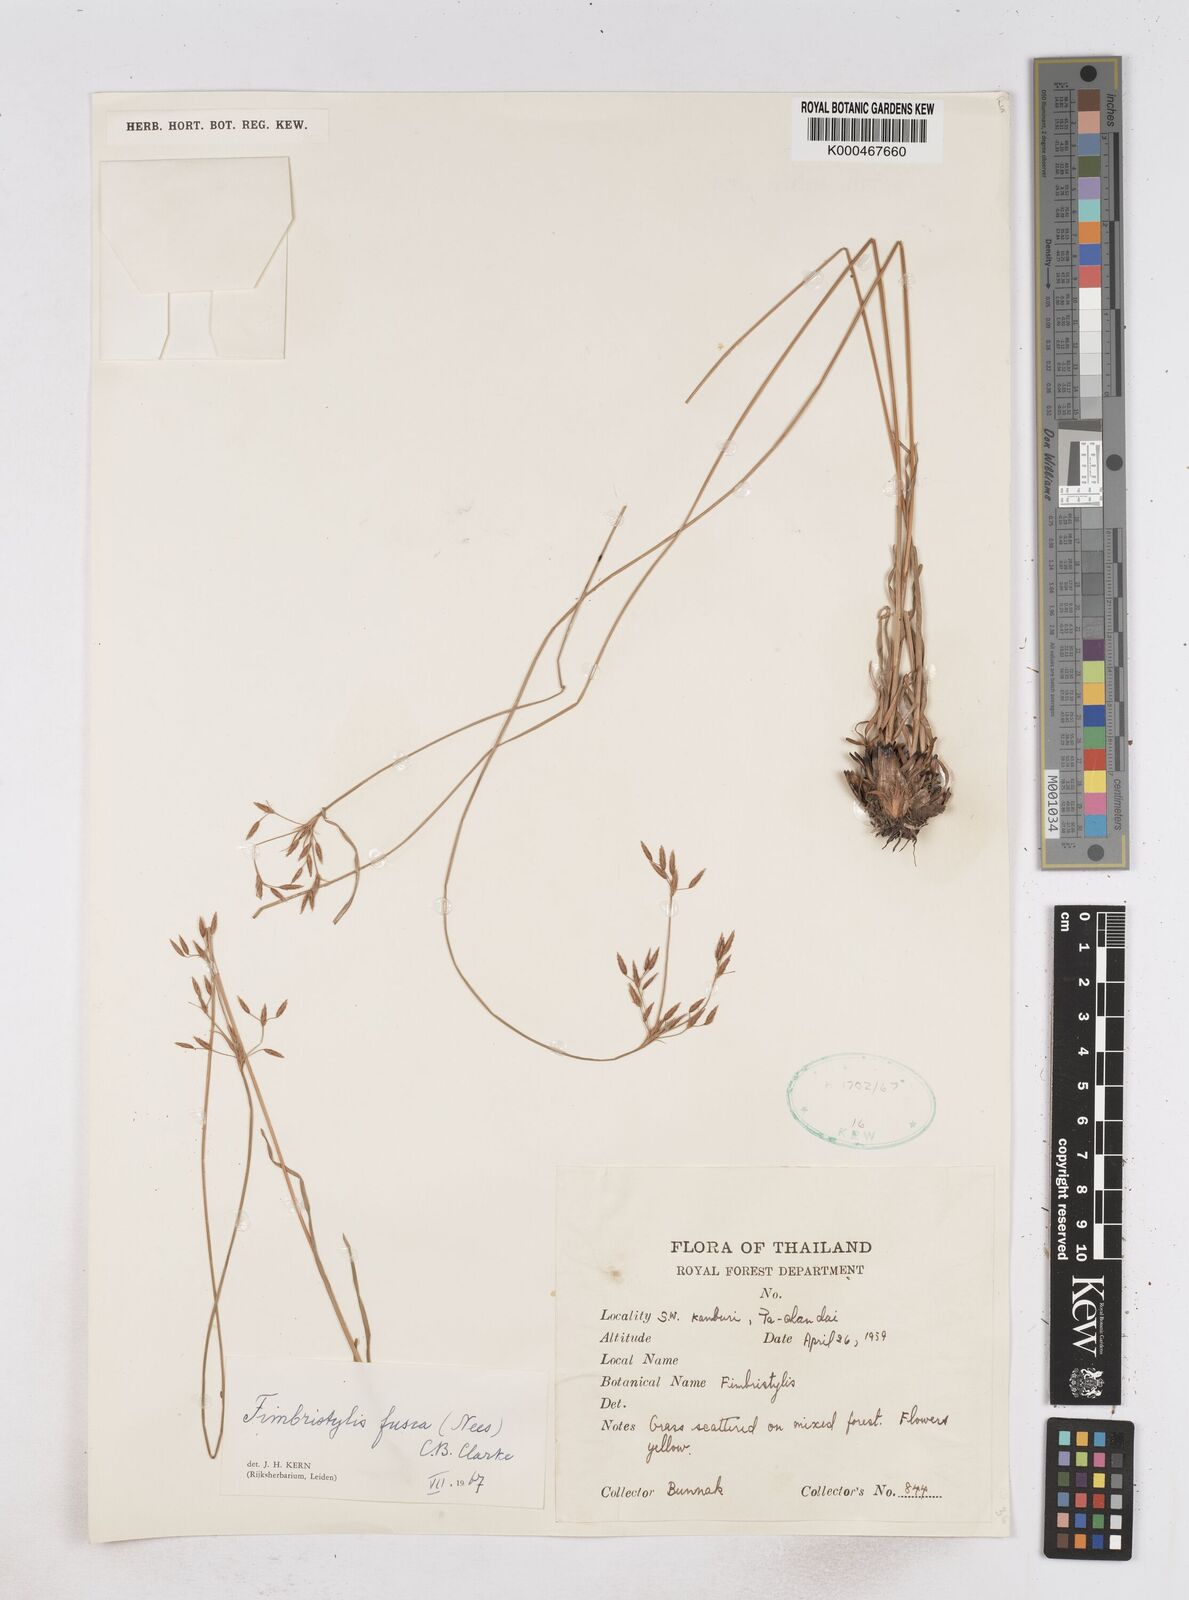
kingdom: Plantae
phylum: Tracheophyta
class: Liliopsida
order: Poales
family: Cyperaceae
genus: Fimbristylis
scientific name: Fimbristylis fusca
